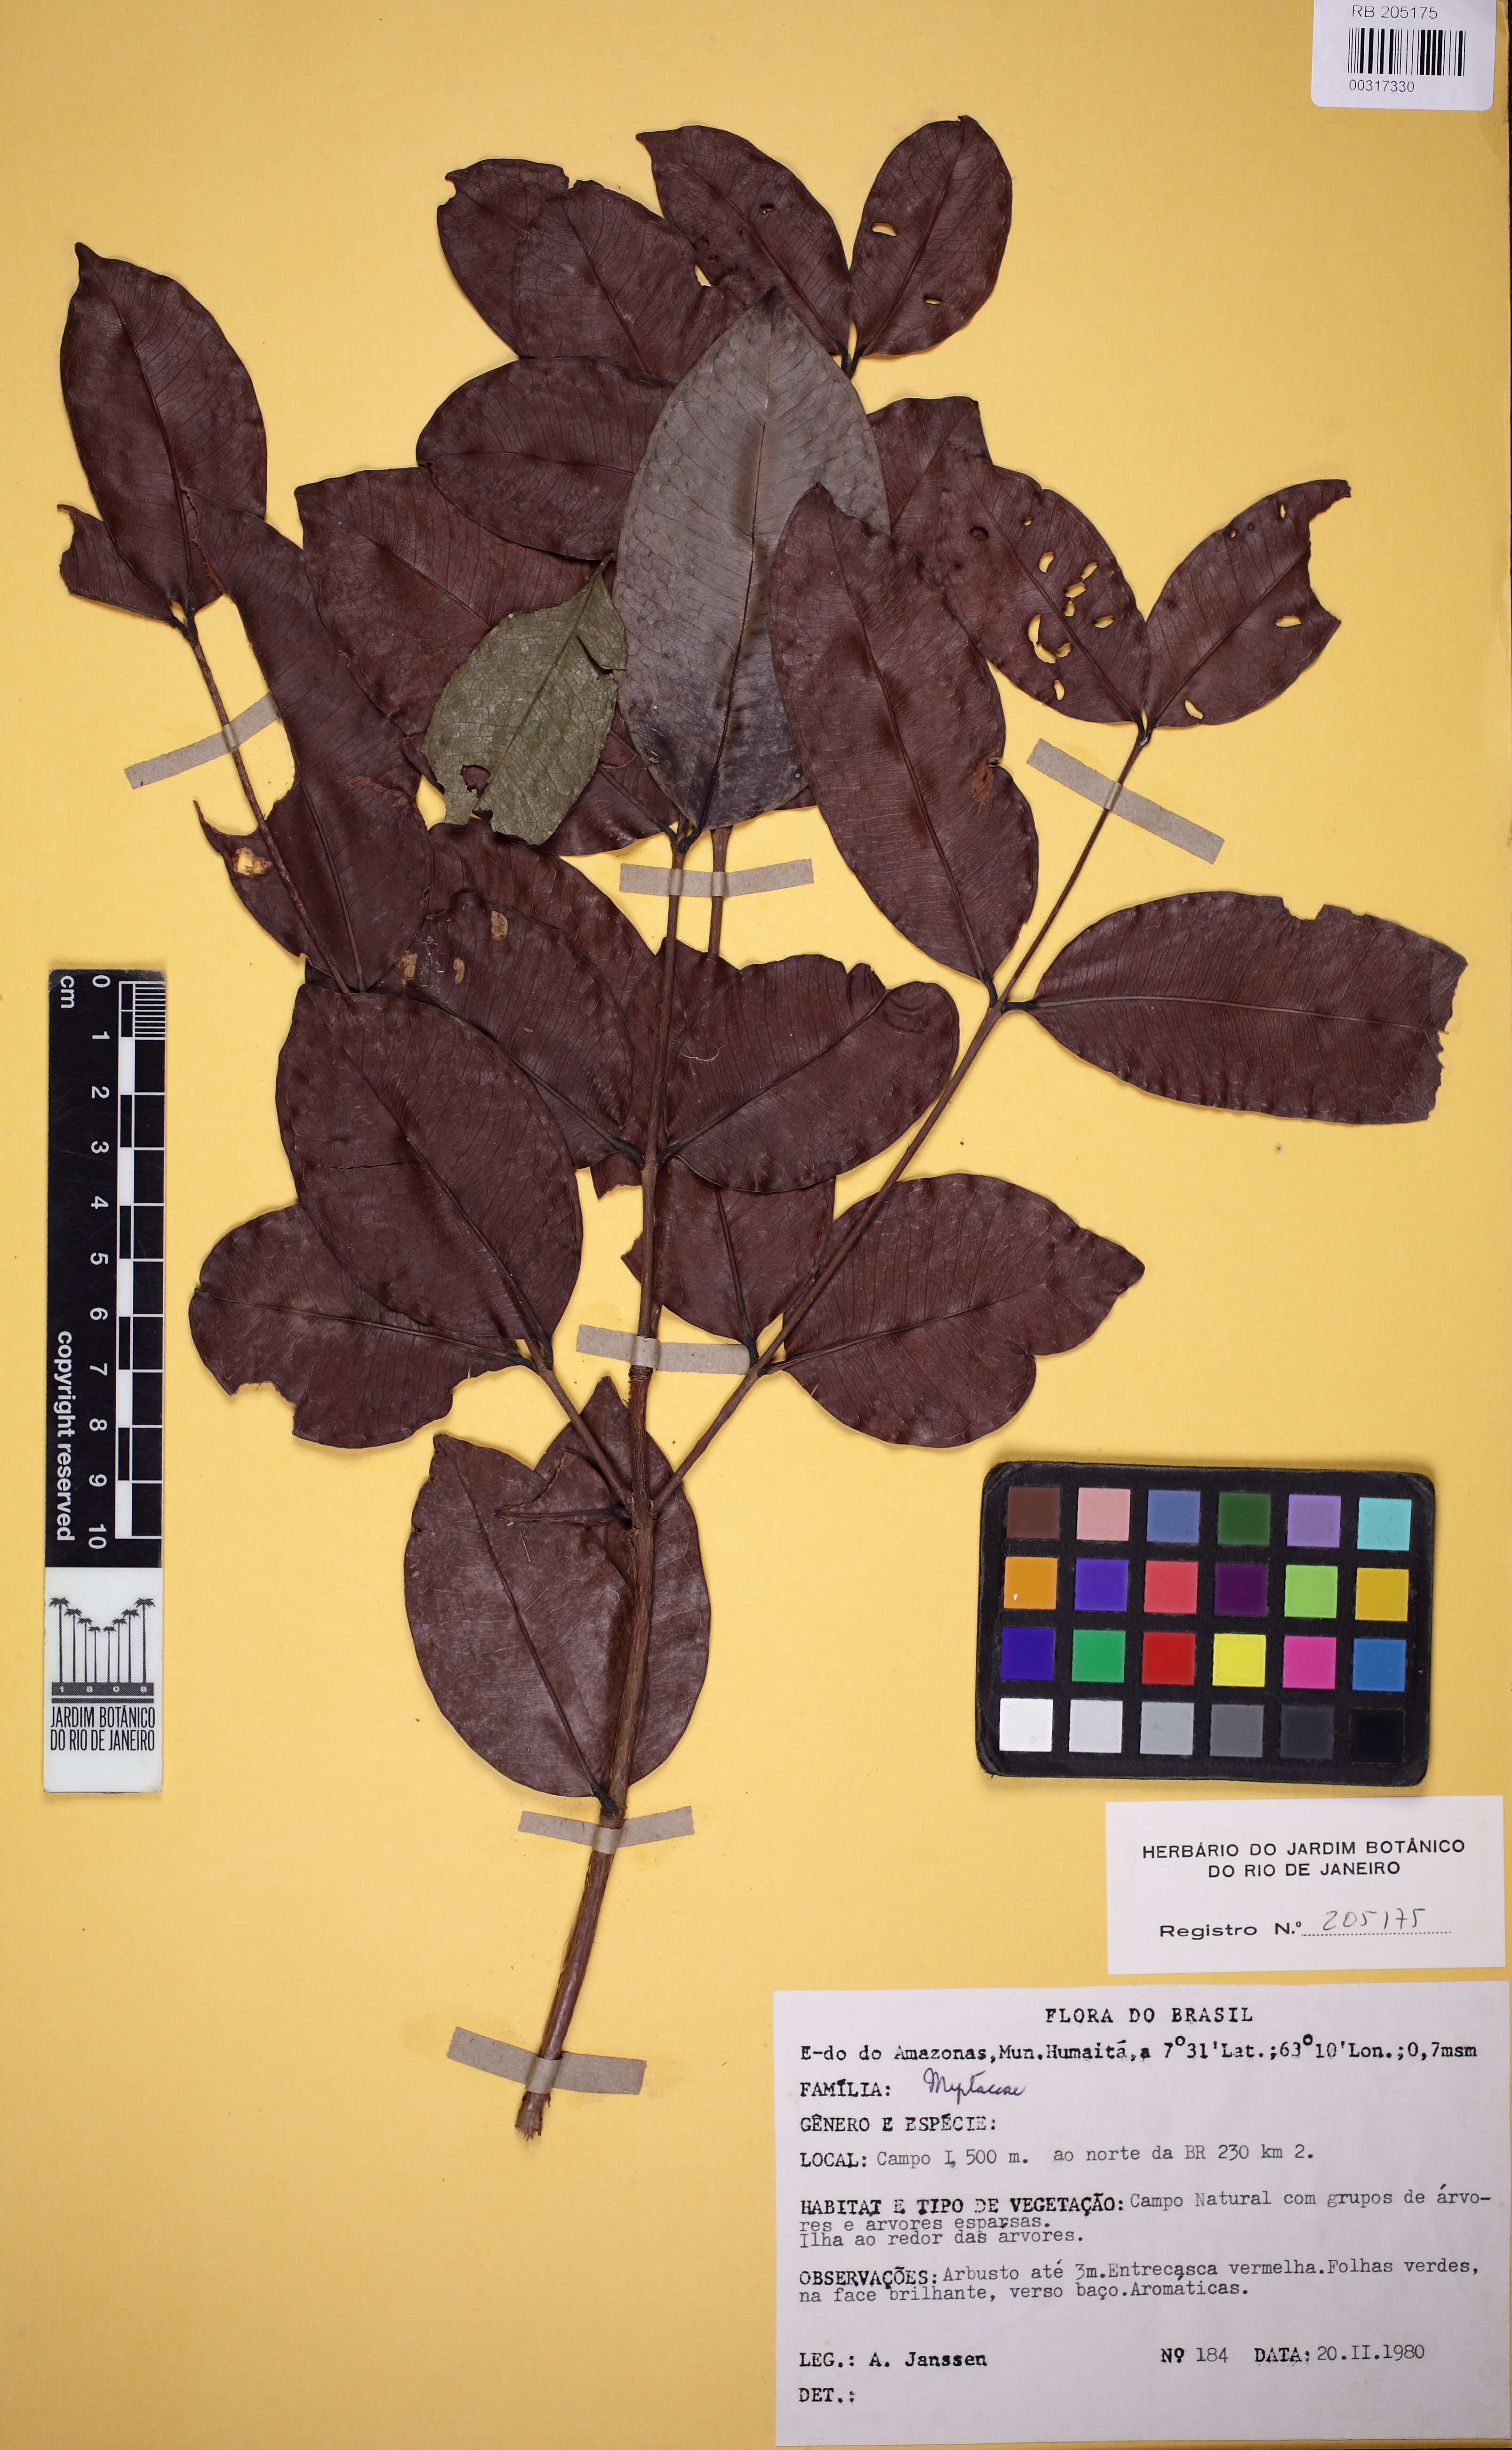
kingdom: Plantae
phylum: Tracheophyta
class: Magnoliopsida
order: Myrtales
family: Myrtaceae
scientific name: Myrtaceae
